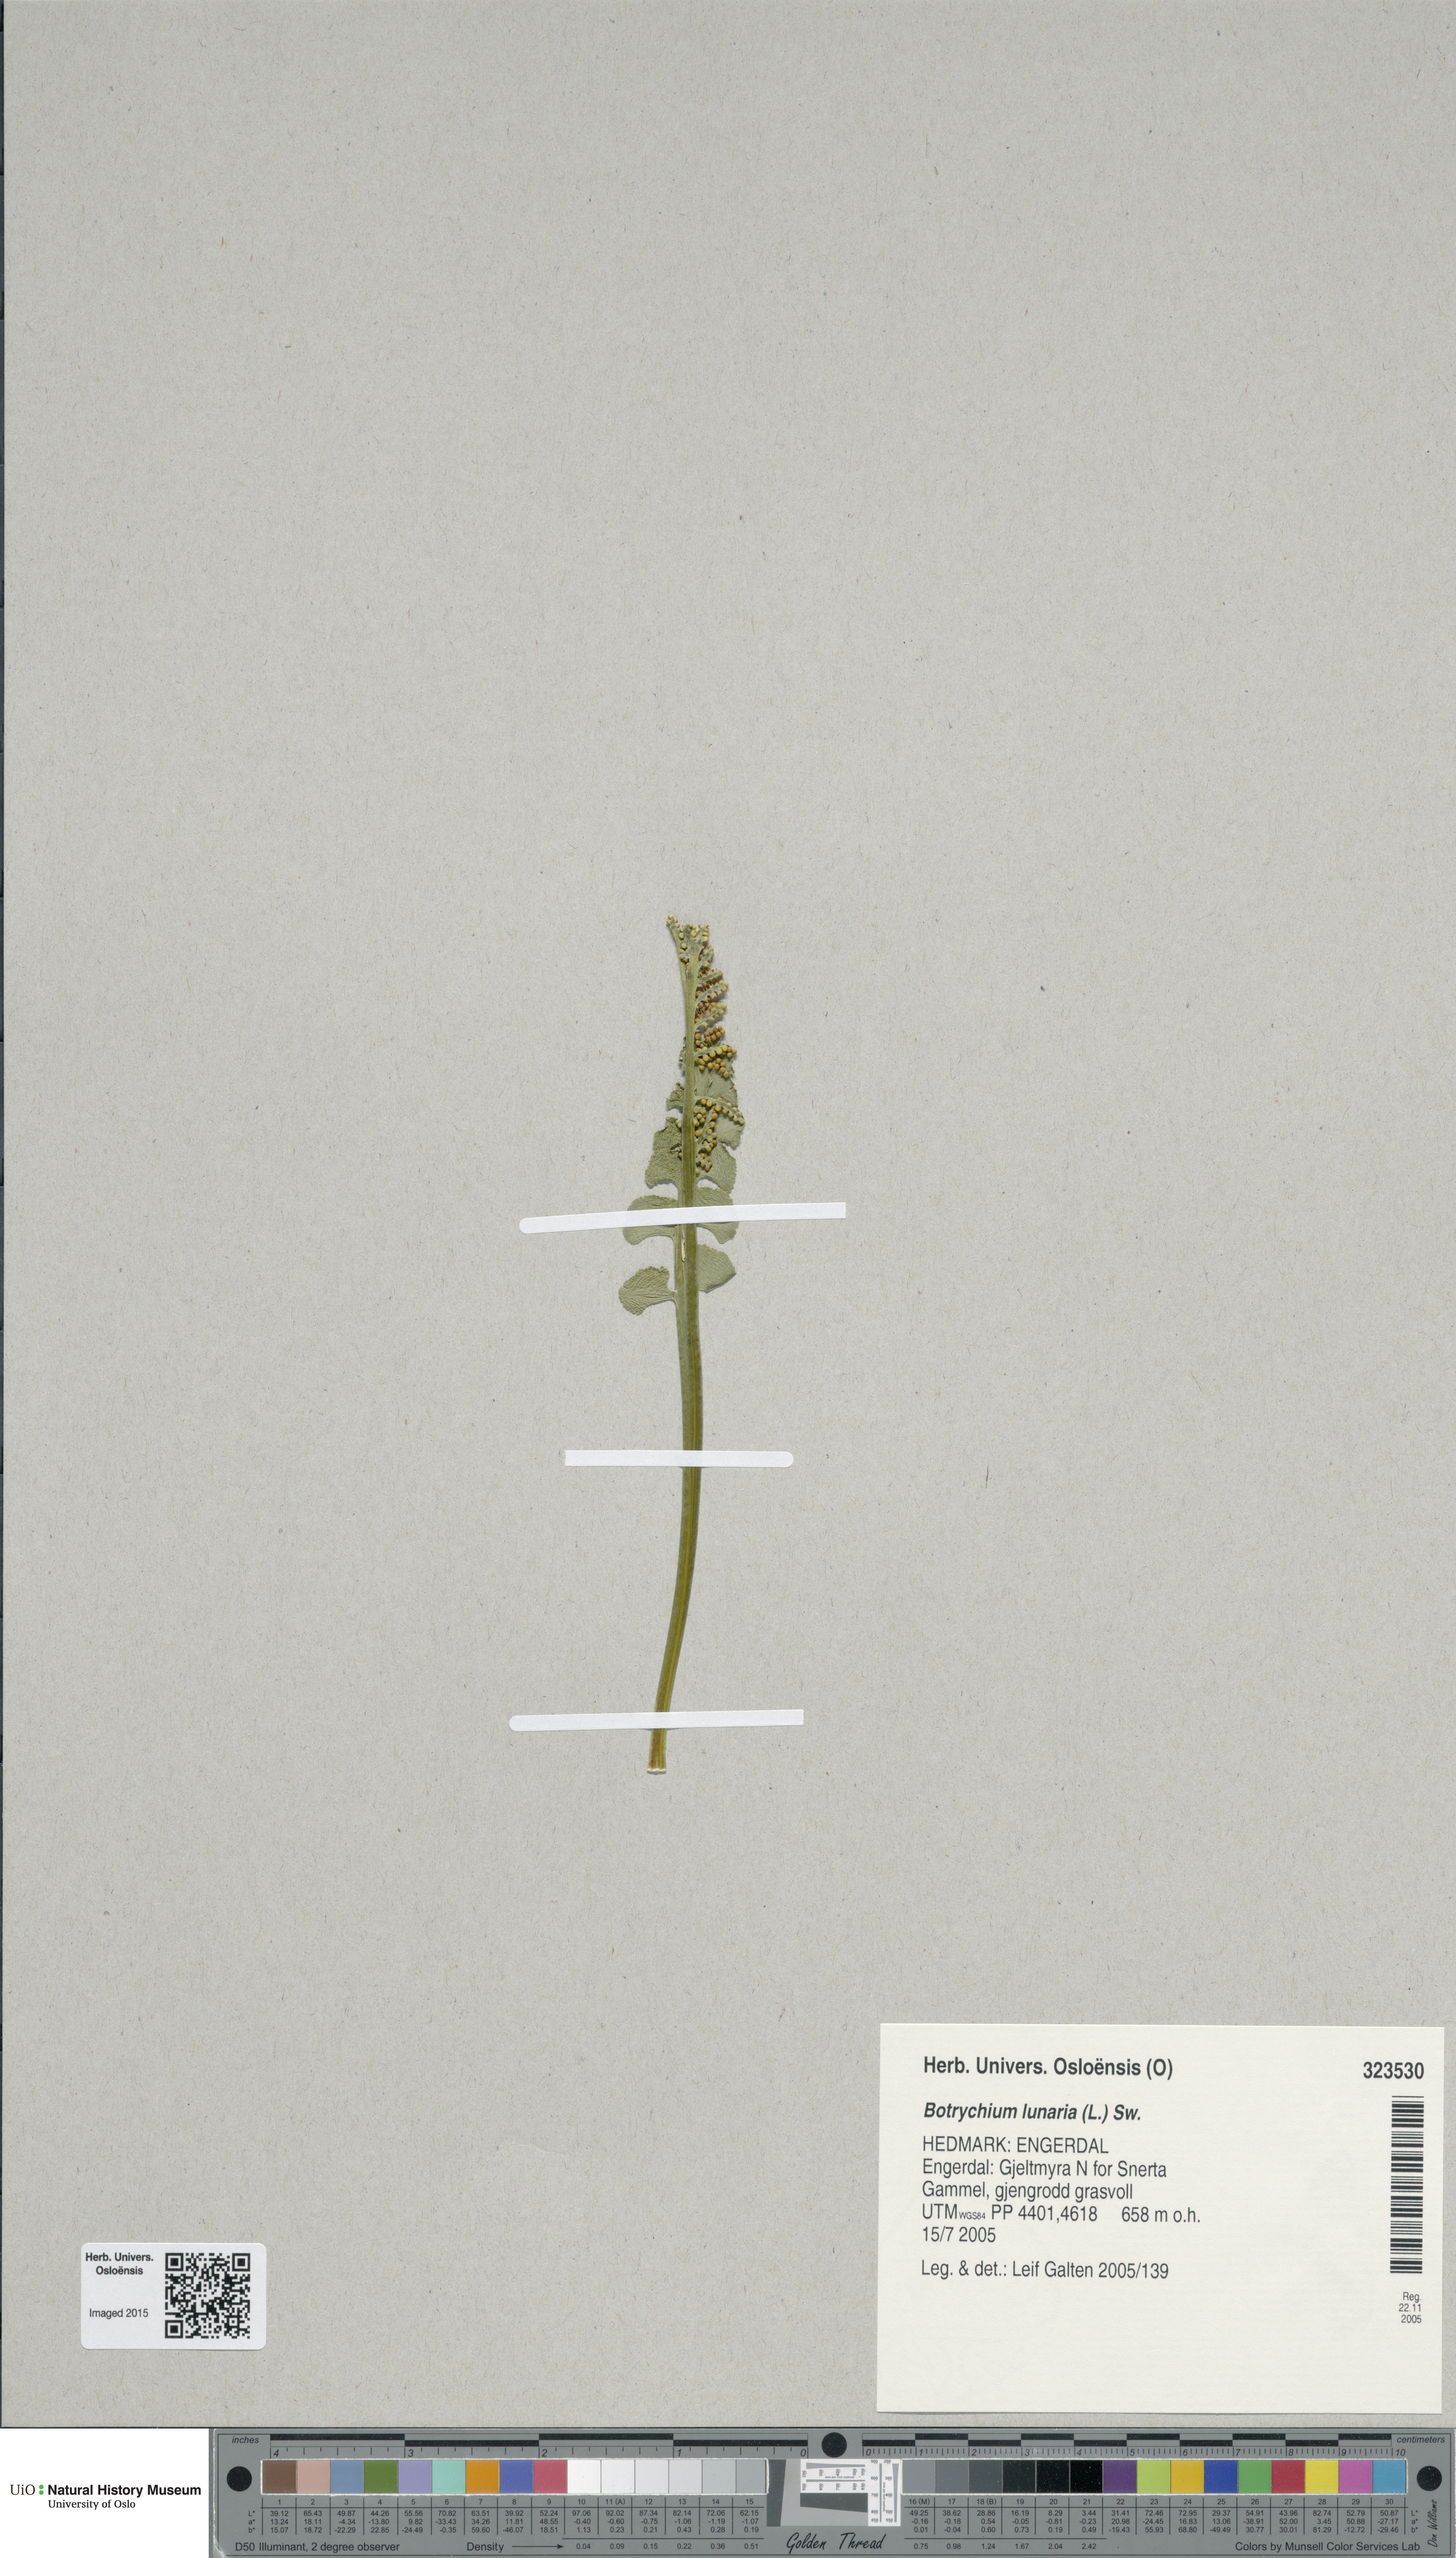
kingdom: Plantae
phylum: Tracheophyta
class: Polypodiopsida
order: Ophioglossales
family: Ophioglossaceae
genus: Botrychium
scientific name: Botrychium lunaria
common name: Moonwort
